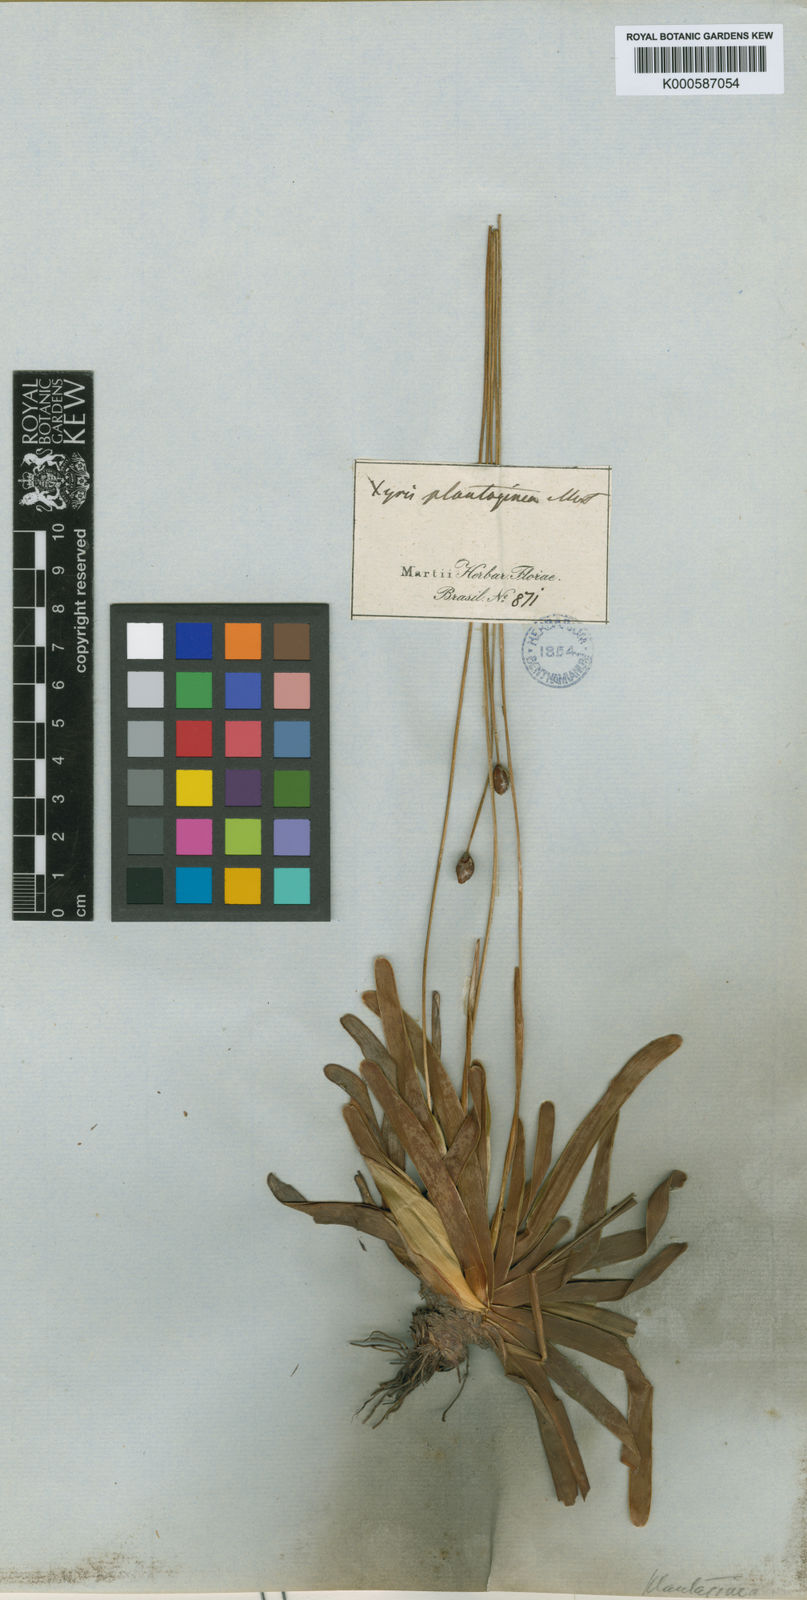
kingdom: Plantae
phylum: Tracheophyta
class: Liliopsida
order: Poales
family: Xyridaceae
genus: Xyris
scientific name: Xyris plantaginea
